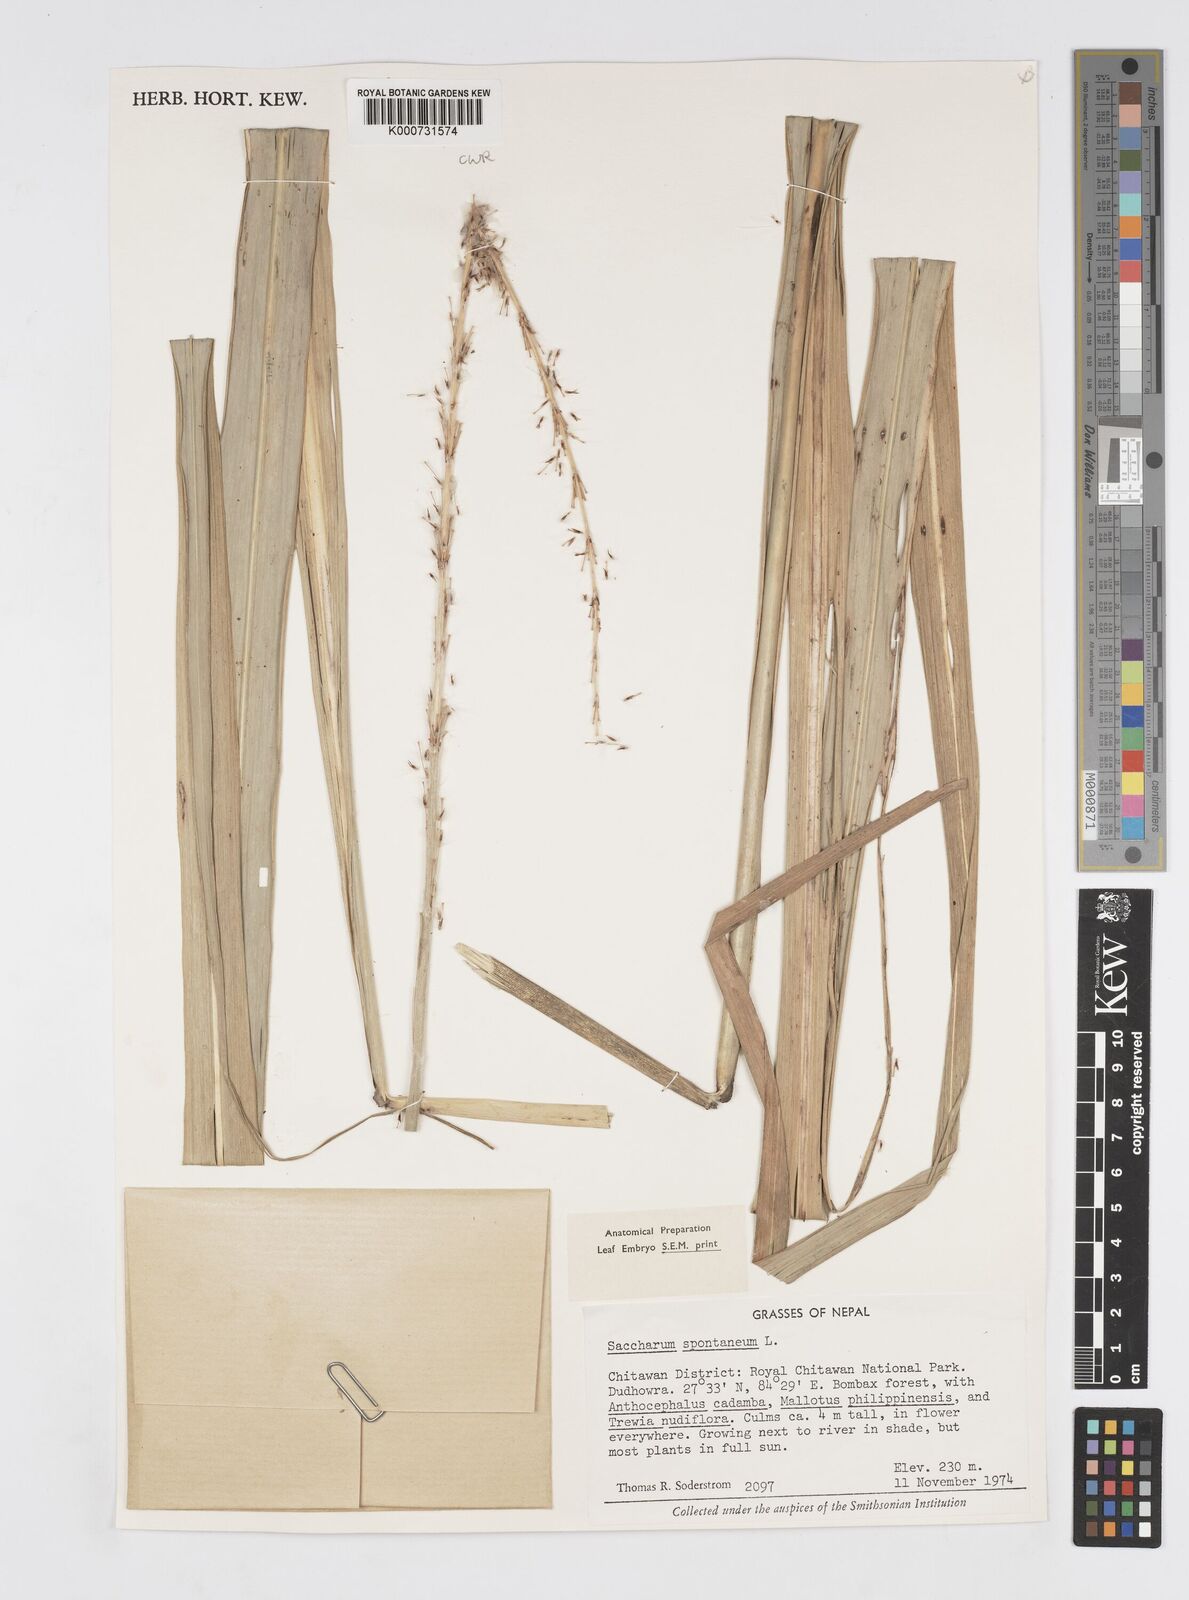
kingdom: Plantae
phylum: Tracheophyta
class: Liliopsida
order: Poales
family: Poaceae
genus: Saccharum
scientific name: Saccharum spontaneum
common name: Wild sugarcane
